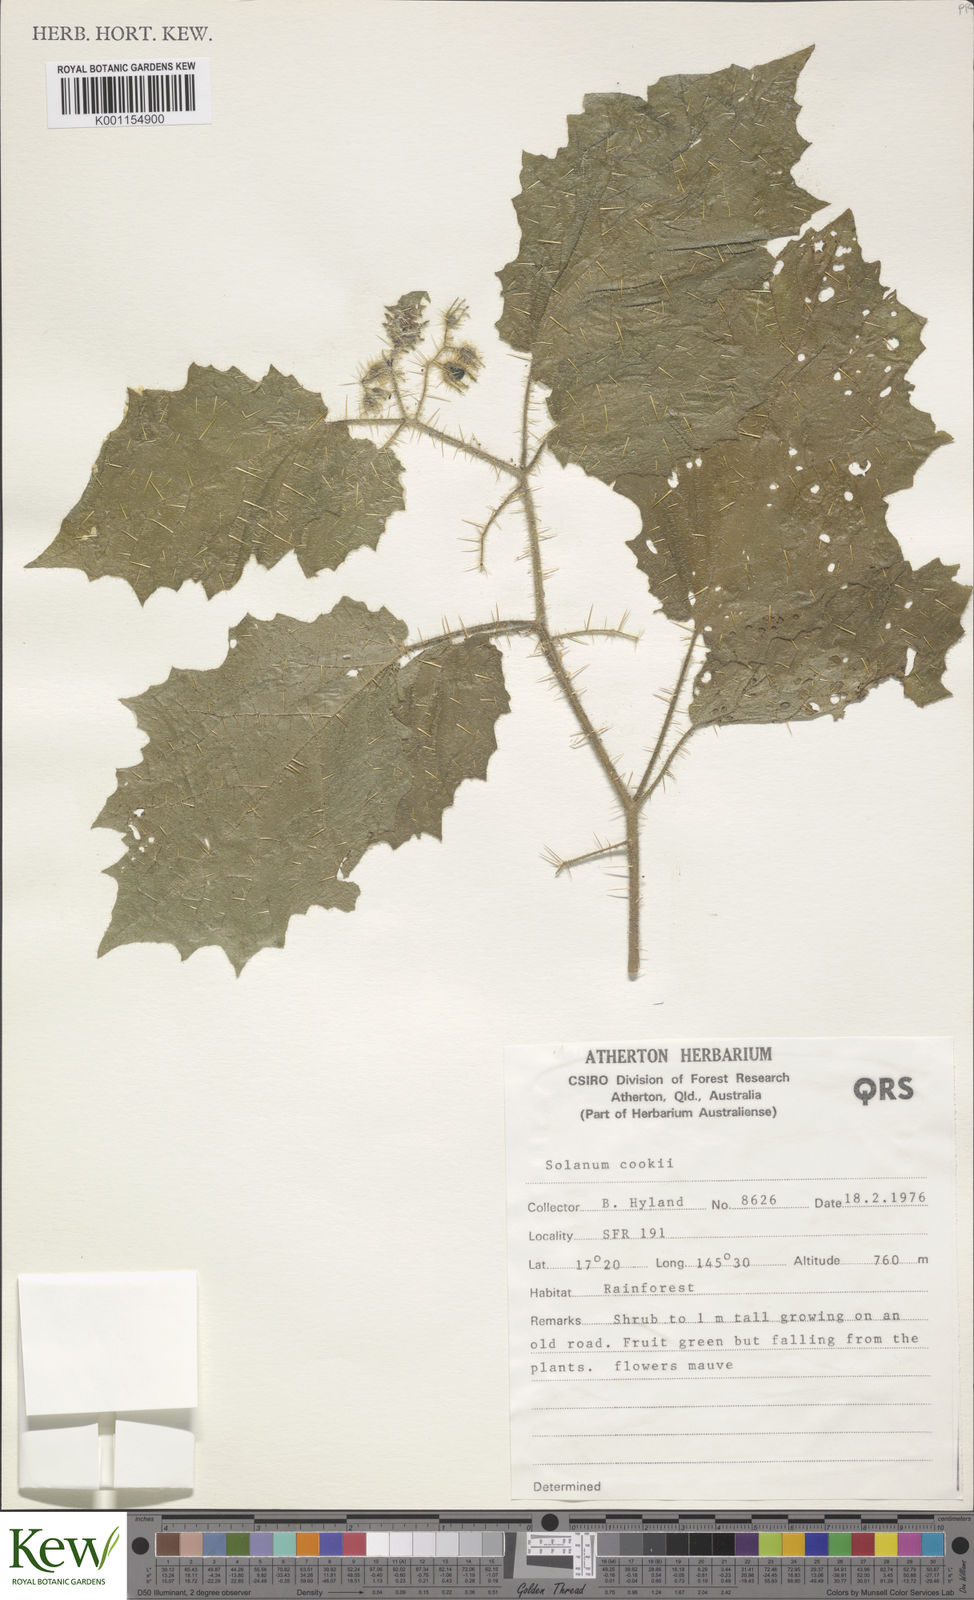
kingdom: Plantae
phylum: Tracheophyta
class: Magnoliopsida
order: Solanales
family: Solanaceae
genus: Solanum
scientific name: Solanum cookii
